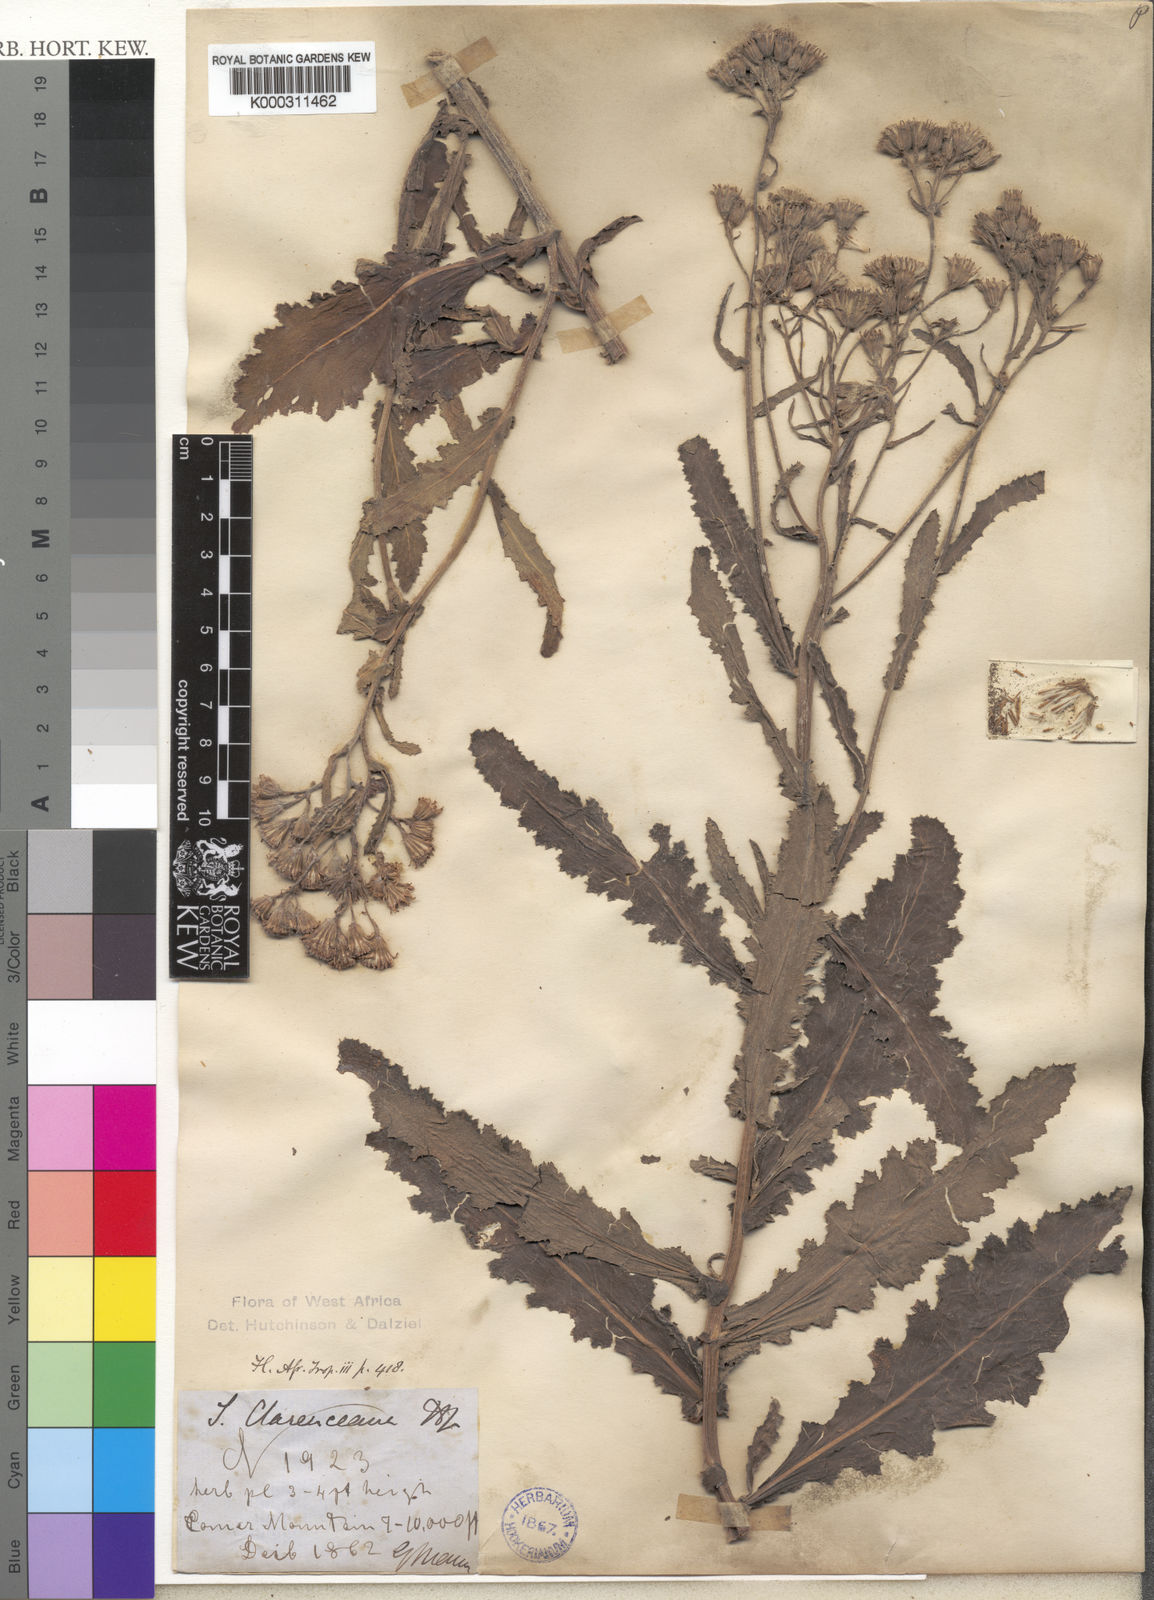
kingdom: Plantae
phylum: Tracheophyta
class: Magnoliopsida
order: Asterales
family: Asteraceae
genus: Senecio
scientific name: Senecio
